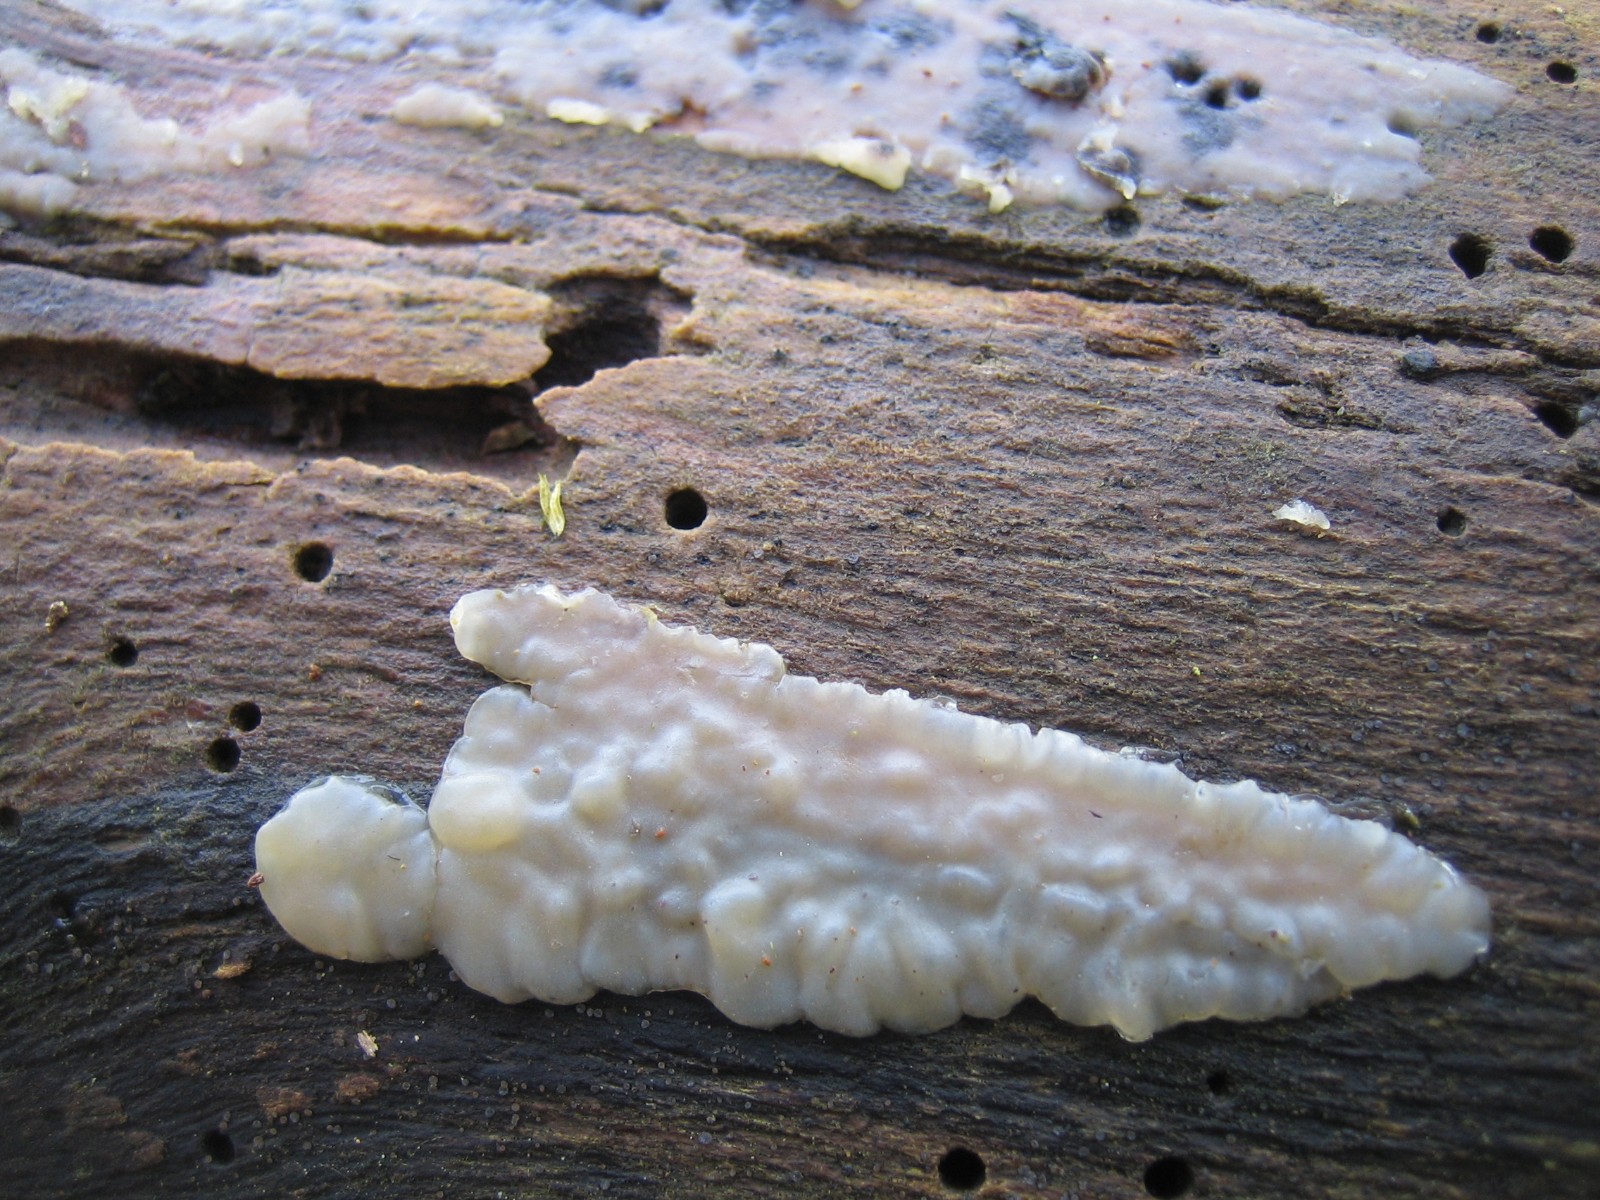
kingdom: Fungi
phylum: Basidiomycota
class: Agaricomycetes
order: Auriculariales
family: Auriculariaceae
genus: Exidia
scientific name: Exidia thuretiana
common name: hvidlig bævretop
